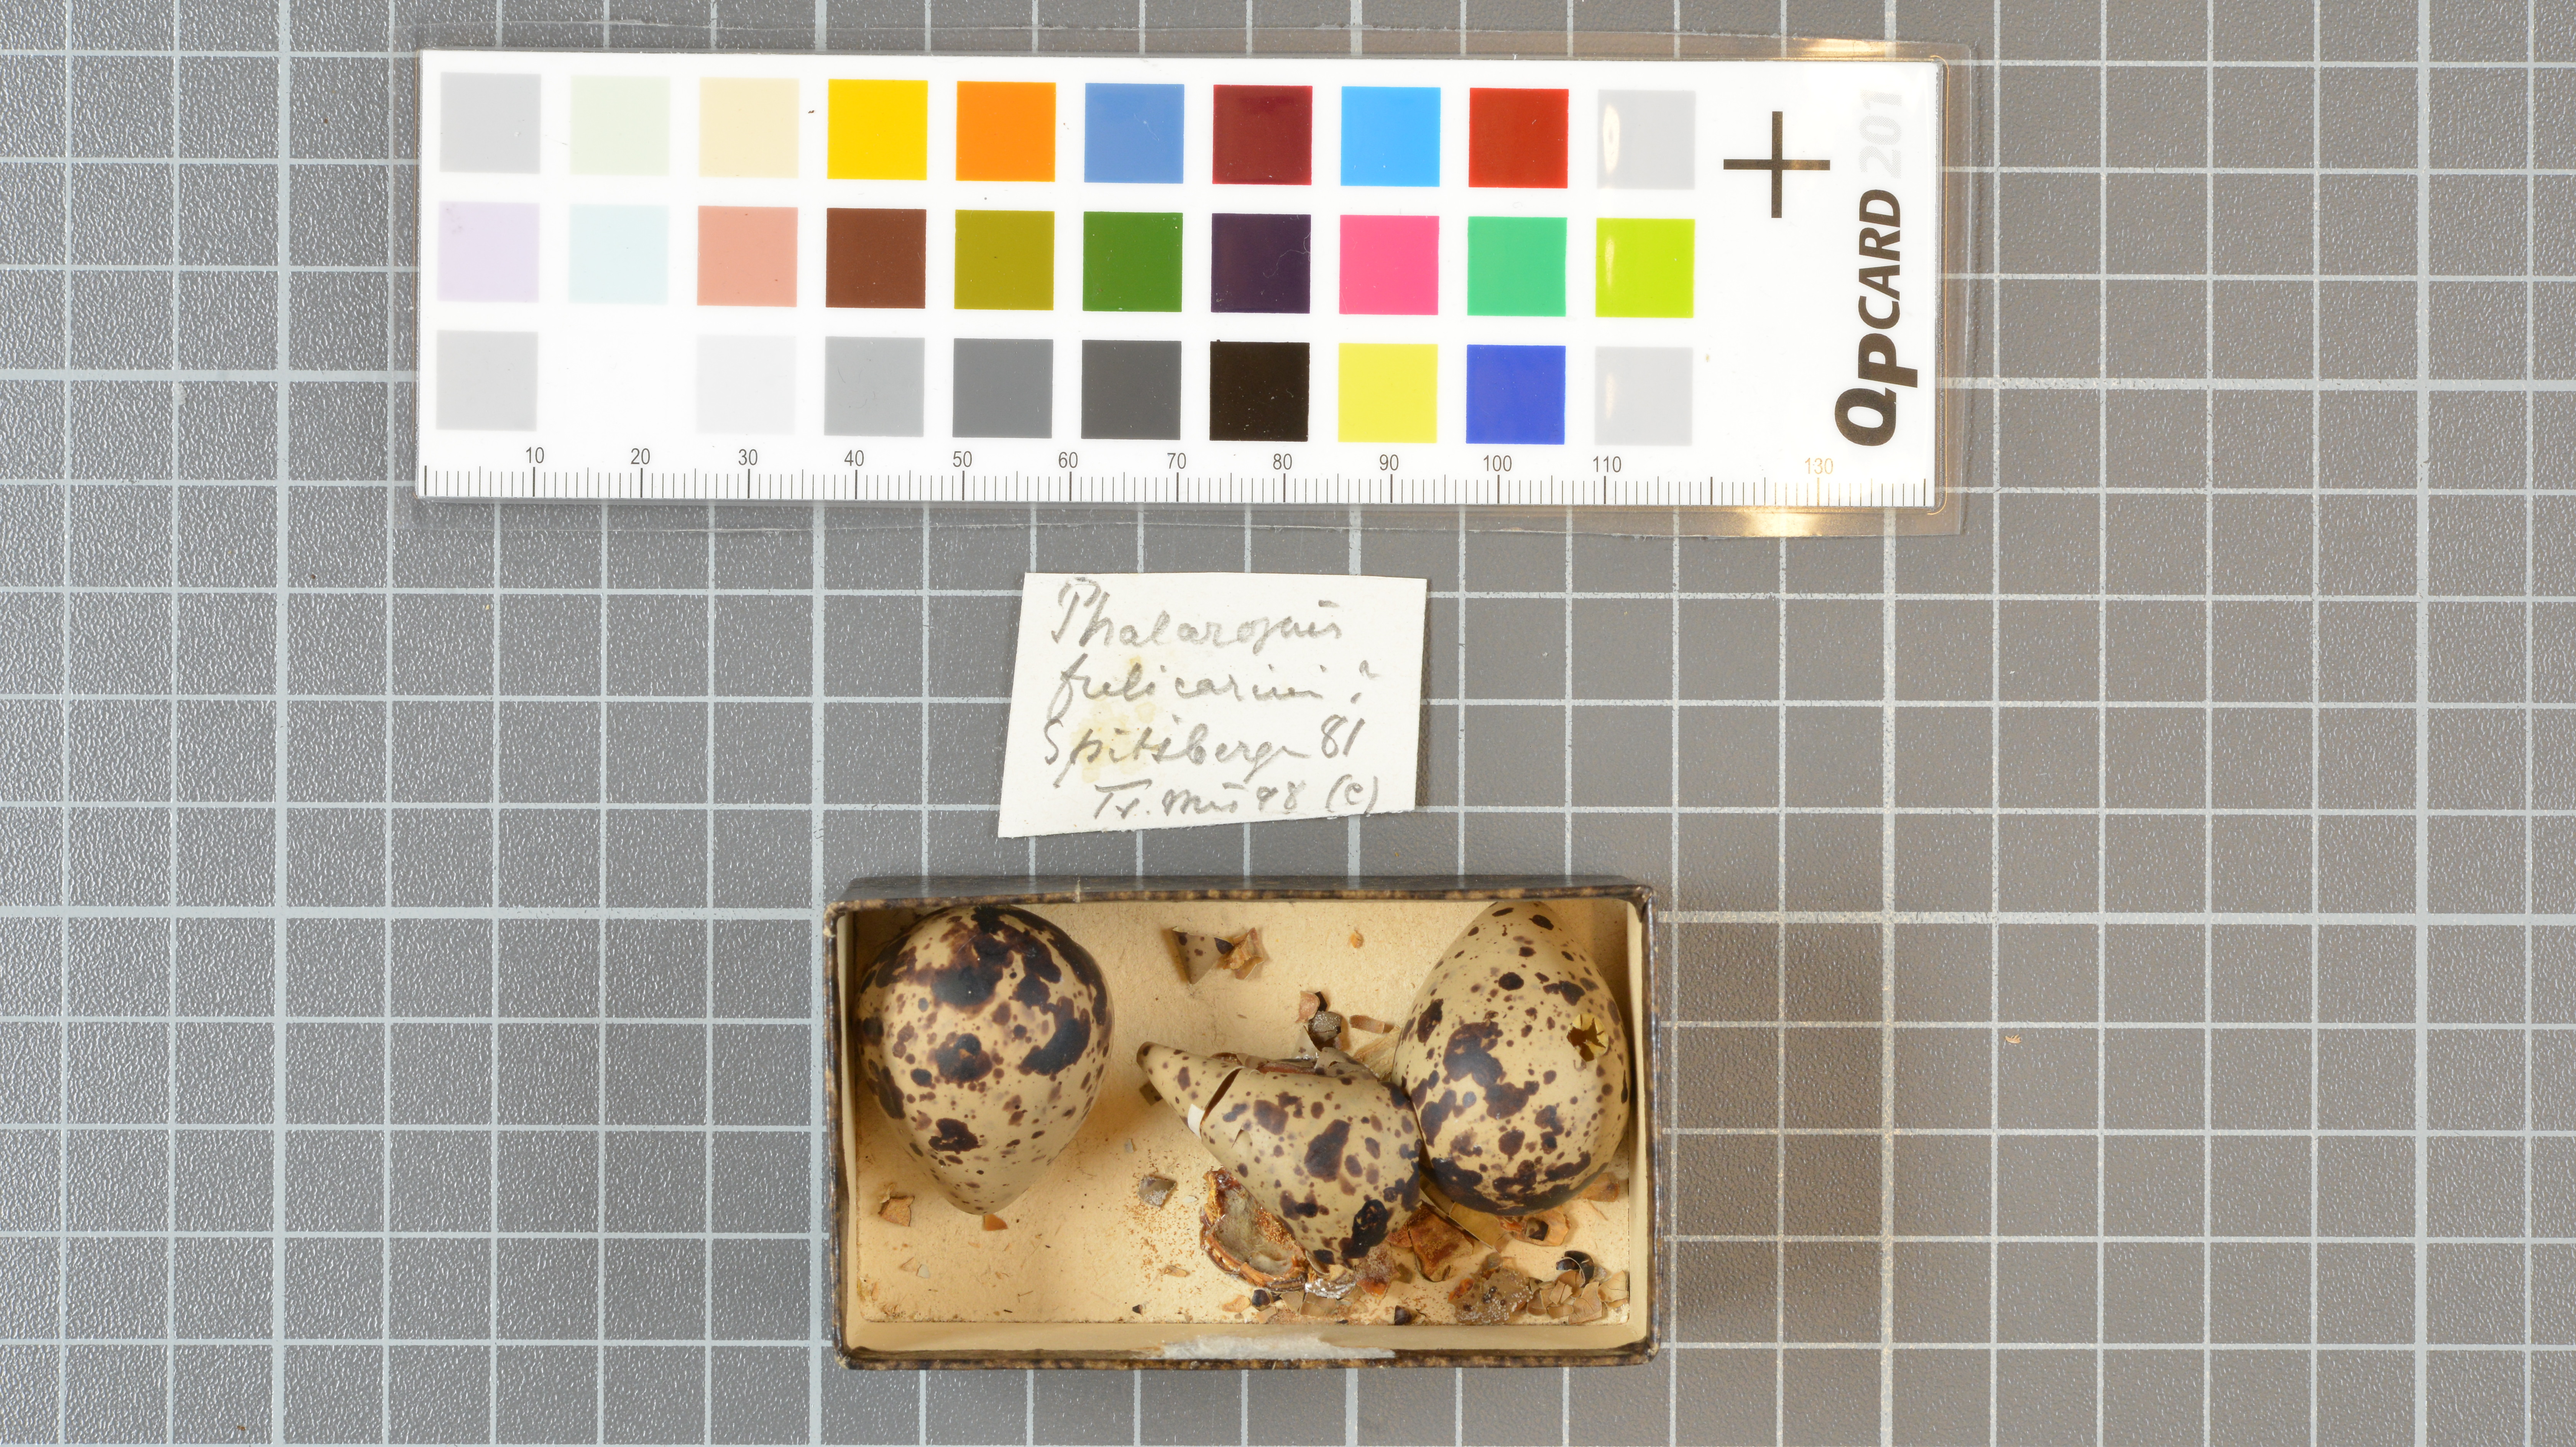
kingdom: Animalia
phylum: Chordata
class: Aves
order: Charadriiformes
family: Scolopacidae
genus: Phalaropus
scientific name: Phalaropus fulicarius
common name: Red phalarope
